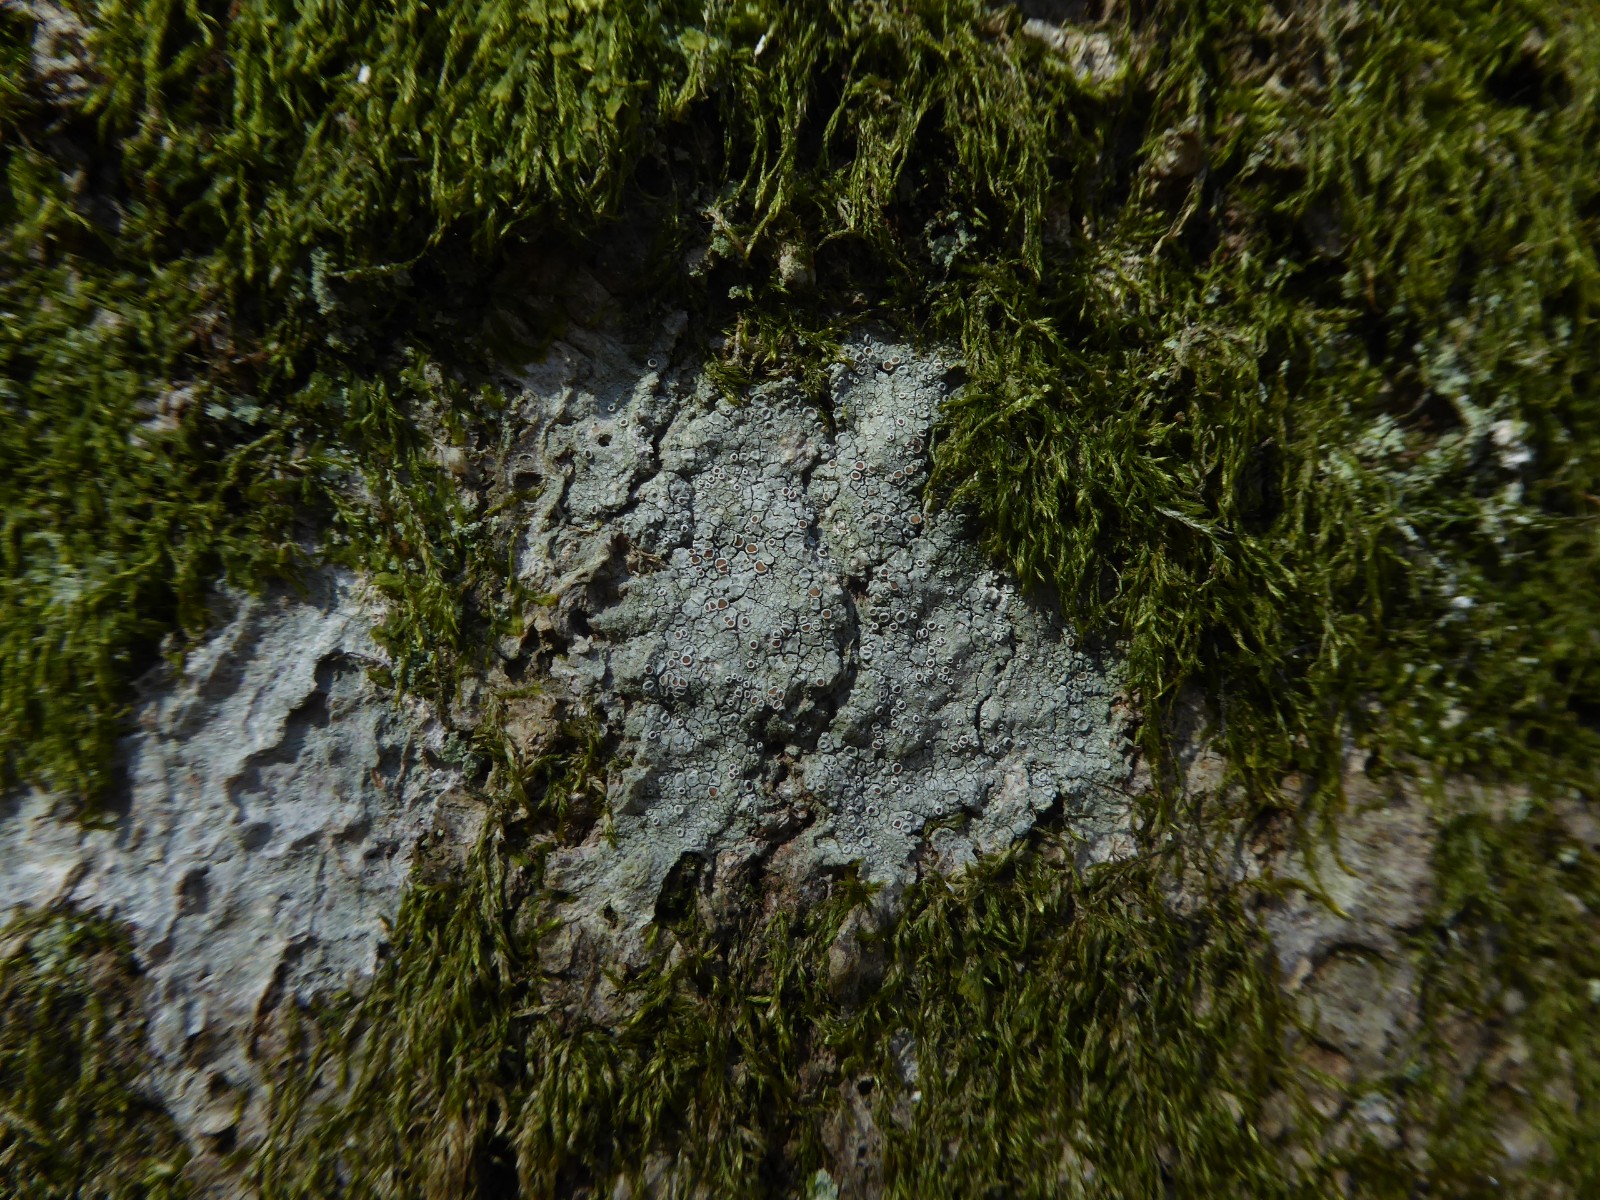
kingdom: Fungi
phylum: Ascomycota
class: Lecanoromycetes
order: Lecanorales
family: Lecanoraceae
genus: Lecanora
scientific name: Lecanora argentata
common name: sølv-kantskivelav
